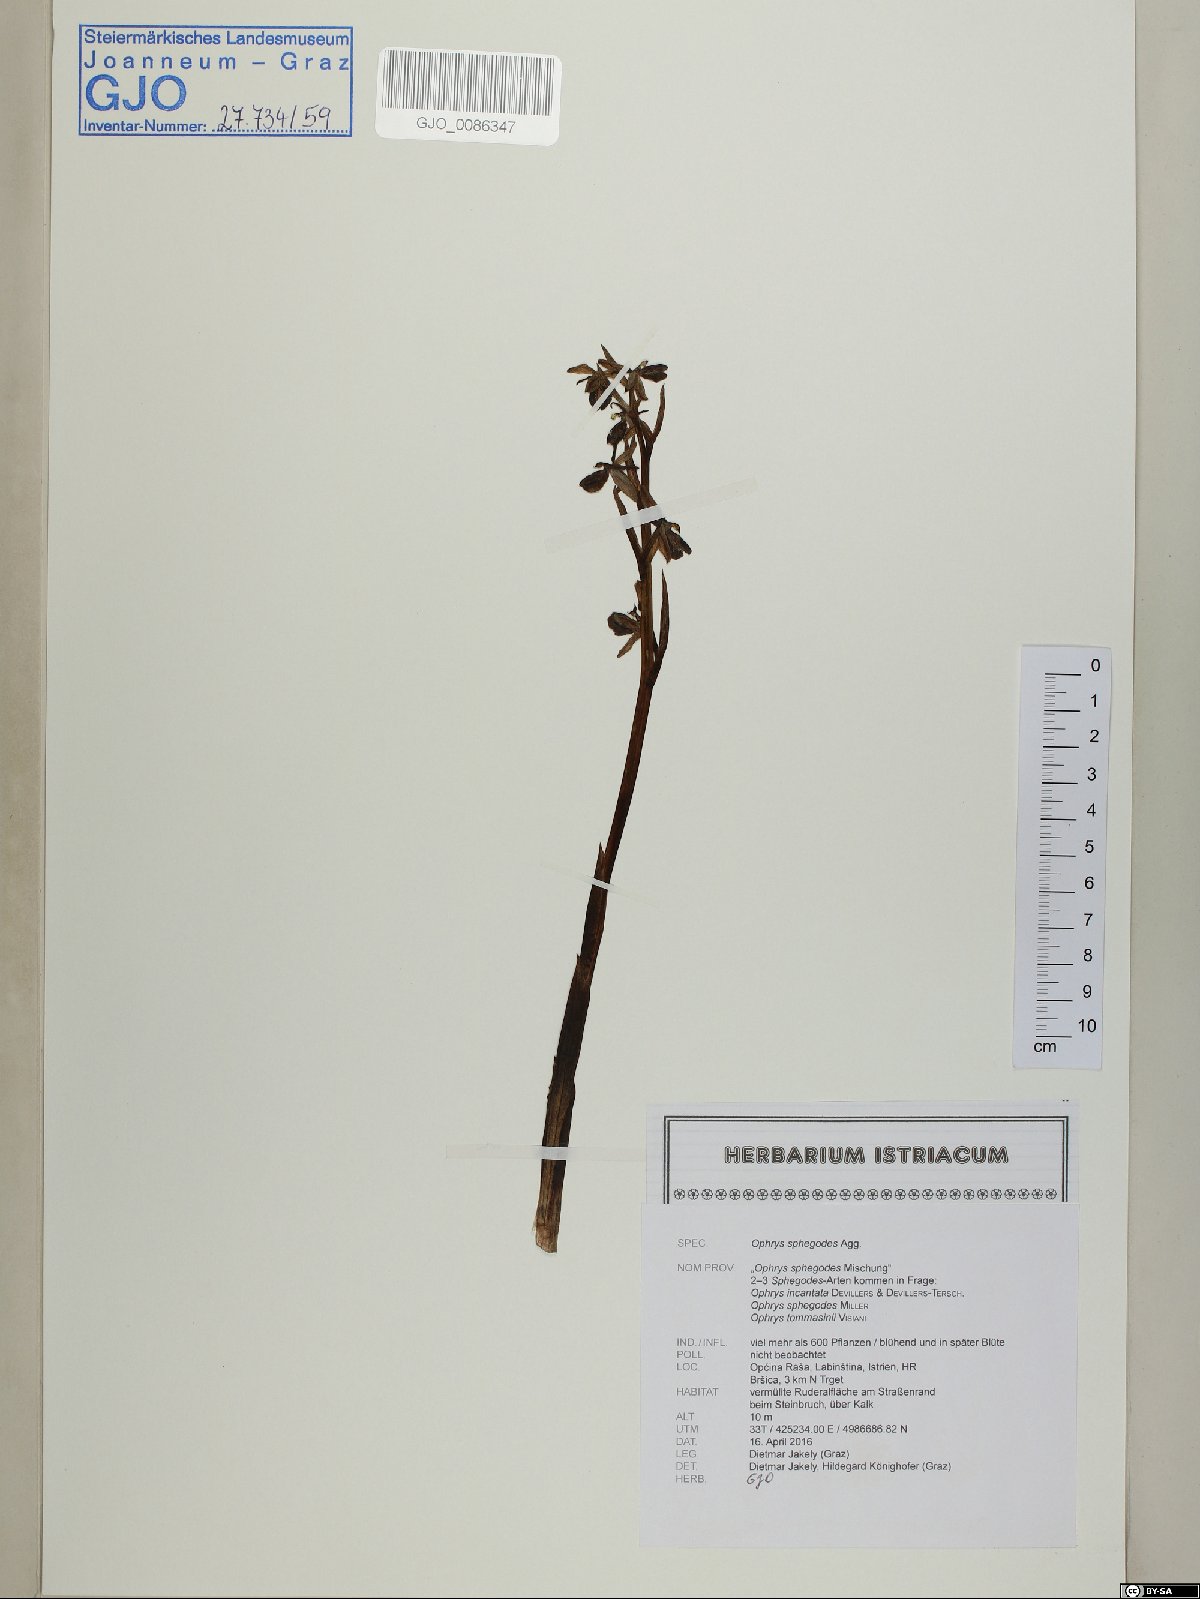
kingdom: Plantae
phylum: Tracheophyta
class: Liliopsida
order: Asparagales
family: Orchidaceae
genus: Ophrys
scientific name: Ophrys sphegodes
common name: Early spider-orchid
